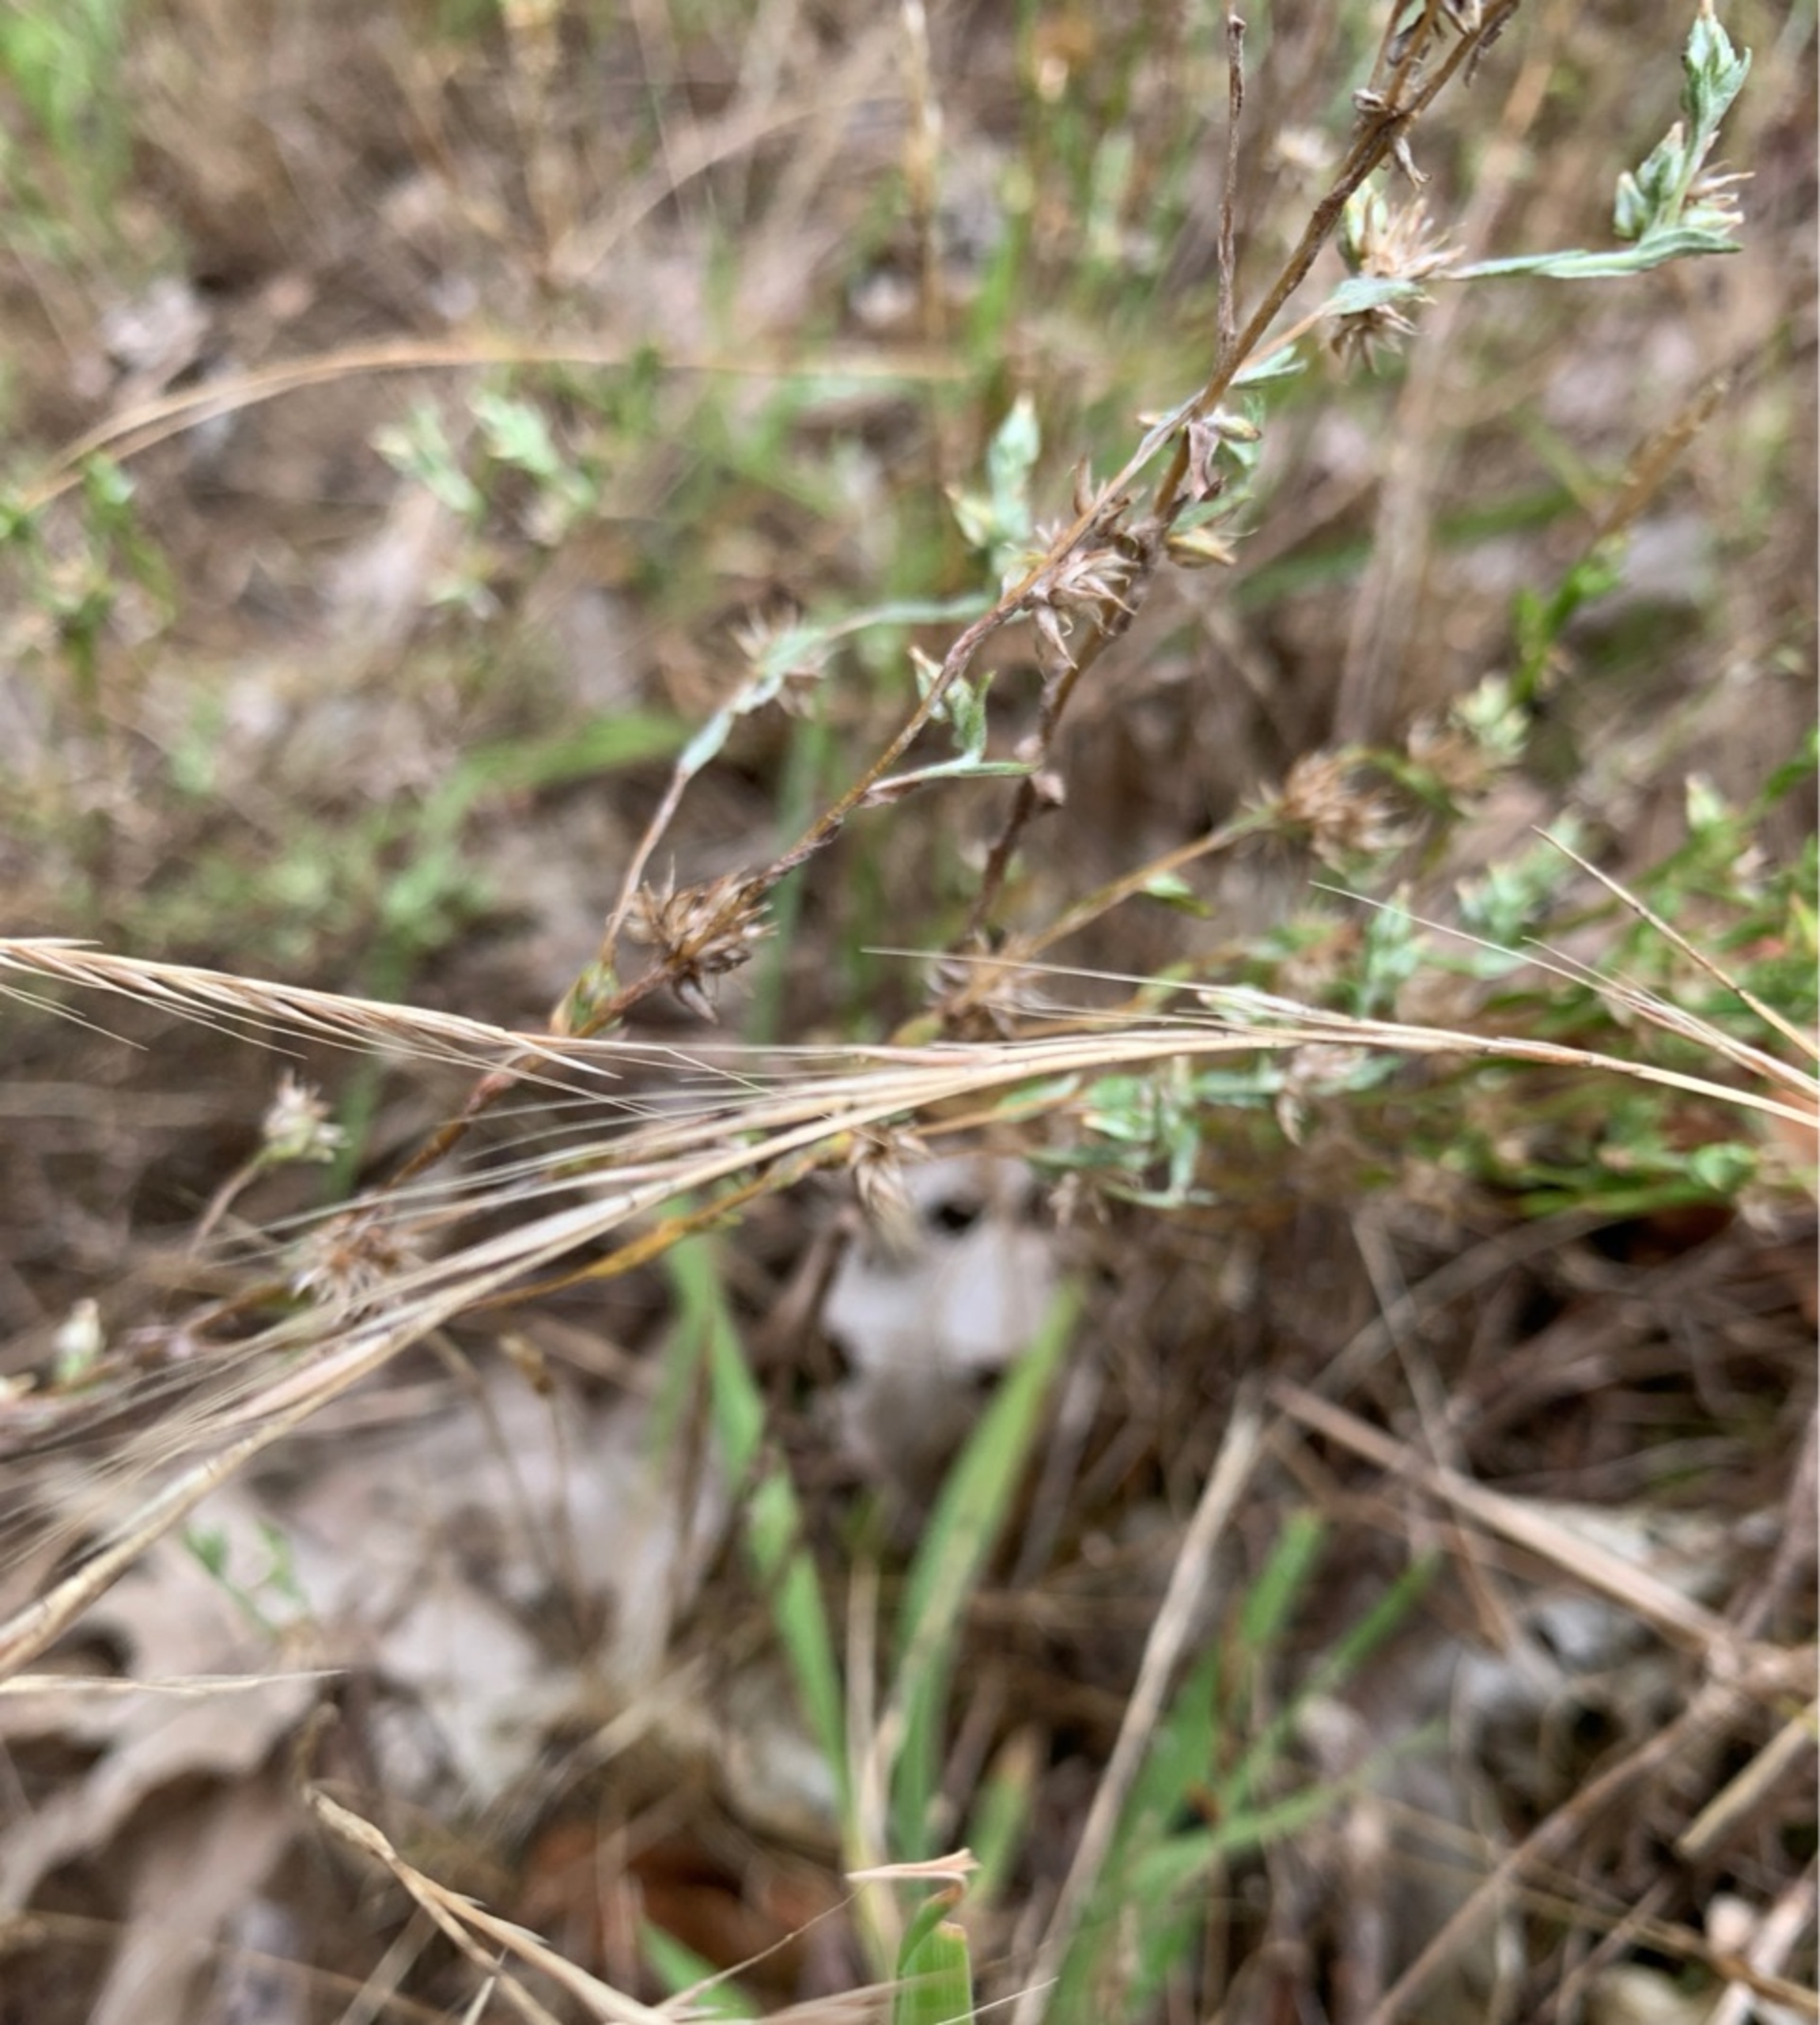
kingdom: Plantae
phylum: Tracheophyta
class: Liliopsida
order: Poales
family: Poaceae
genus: Festuca
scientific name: Festuca bromoides
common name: Langstakket væselhale
